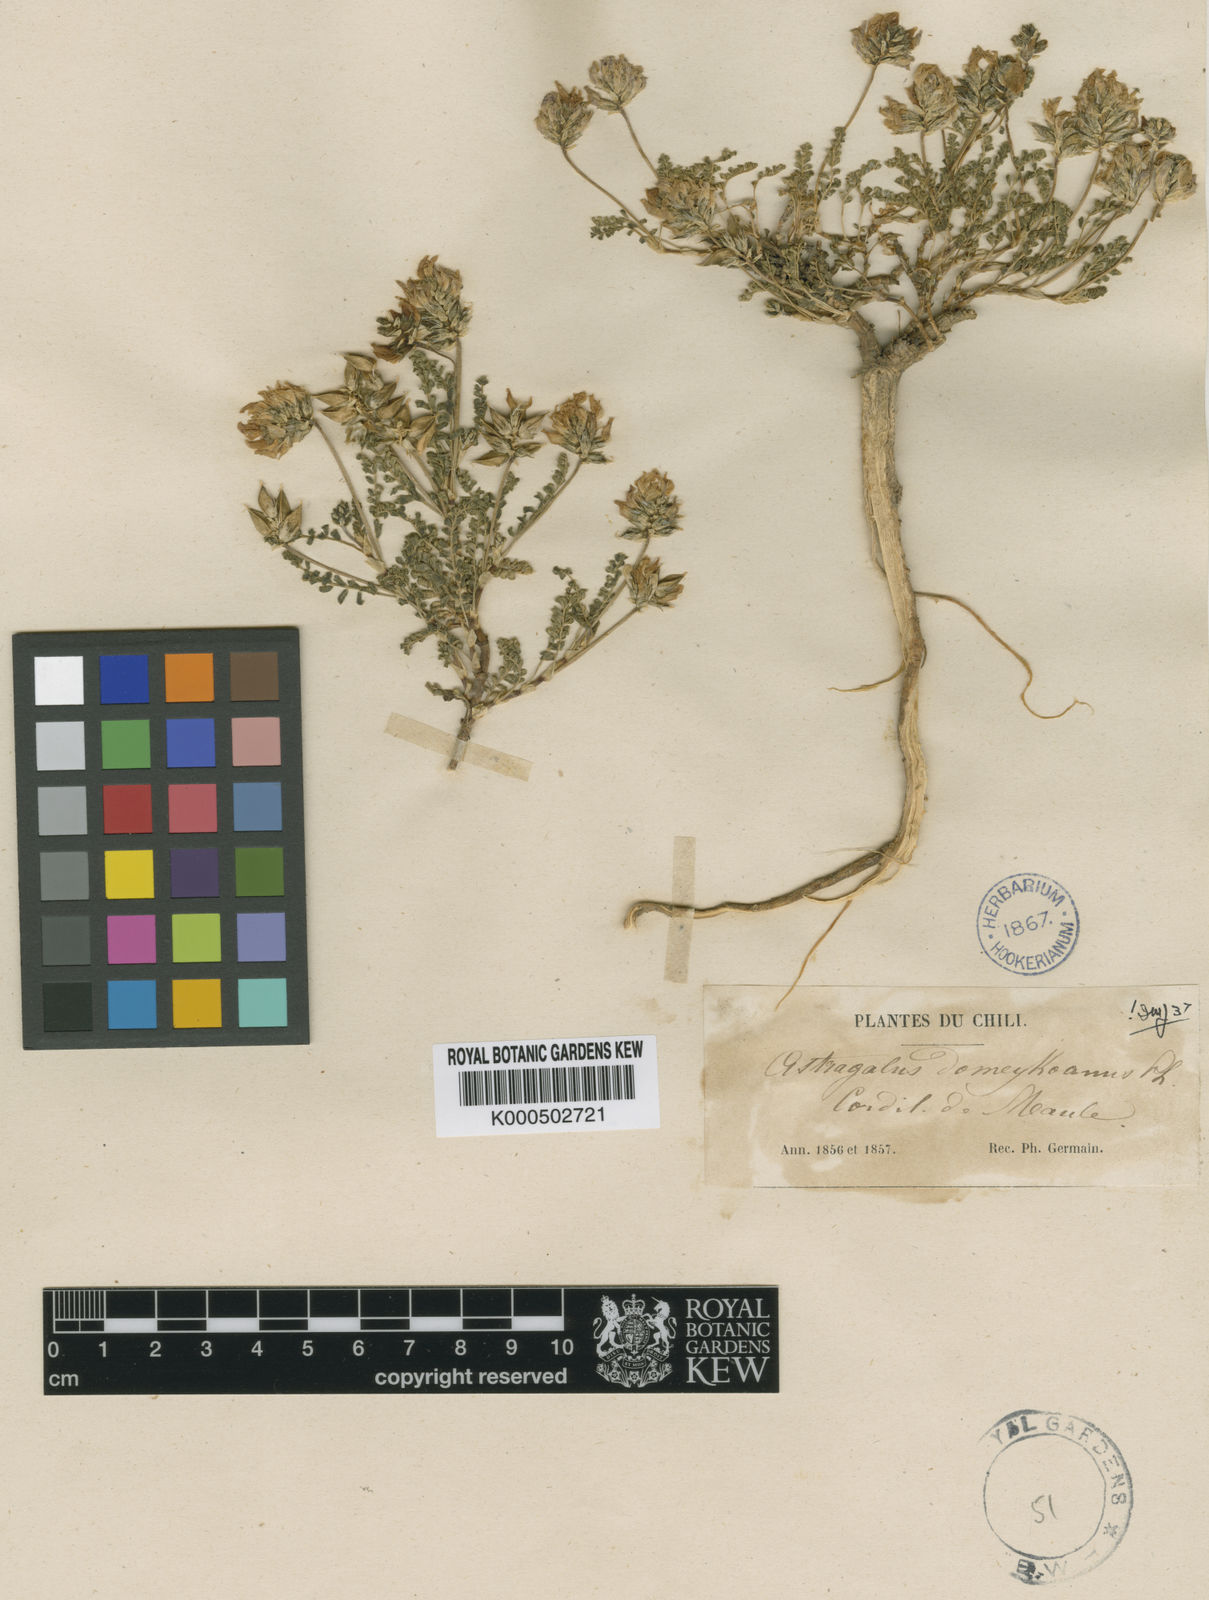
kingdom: Plantae
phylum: Tracheophyta
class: Magnoliopsida
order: Fabales
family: Fabaceae
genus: Astragalus
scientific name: Astragalus domeykoanus
